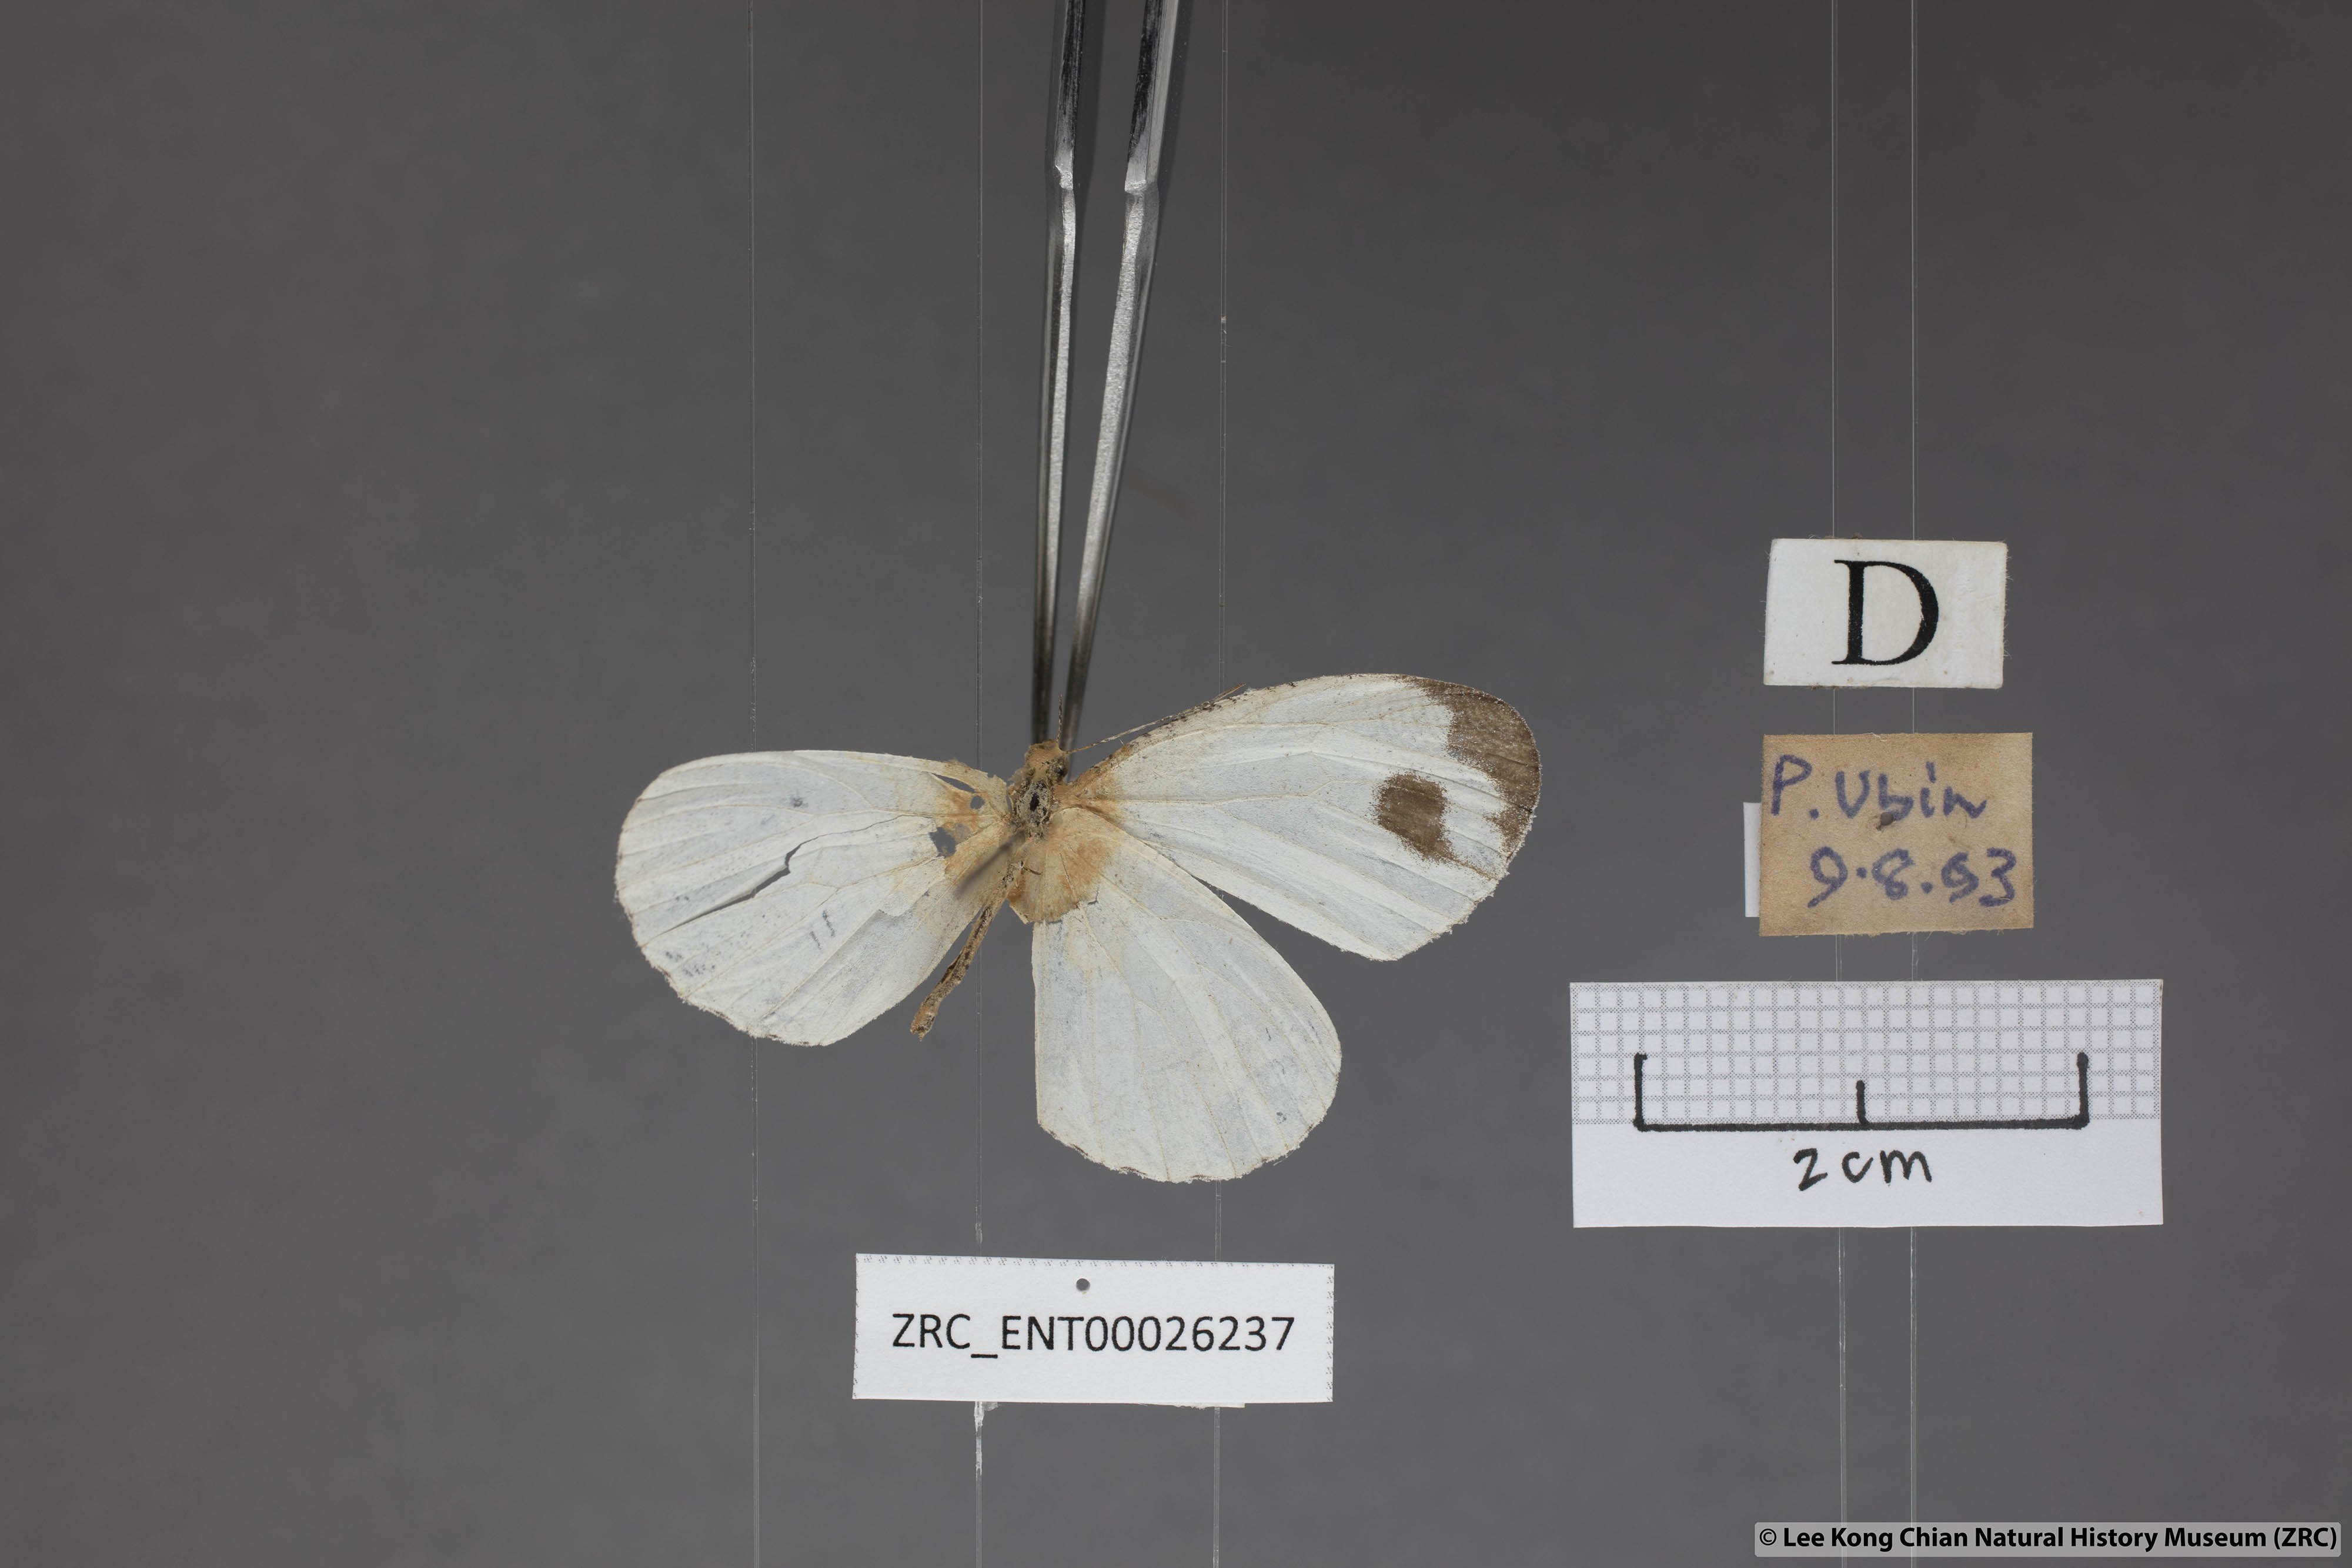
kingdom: Animalia
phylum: Arthropoda
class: Insecta
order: Lepidoptera
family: Pieridae
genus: Leptosia
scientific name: Leptosia nina
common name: Psyche
